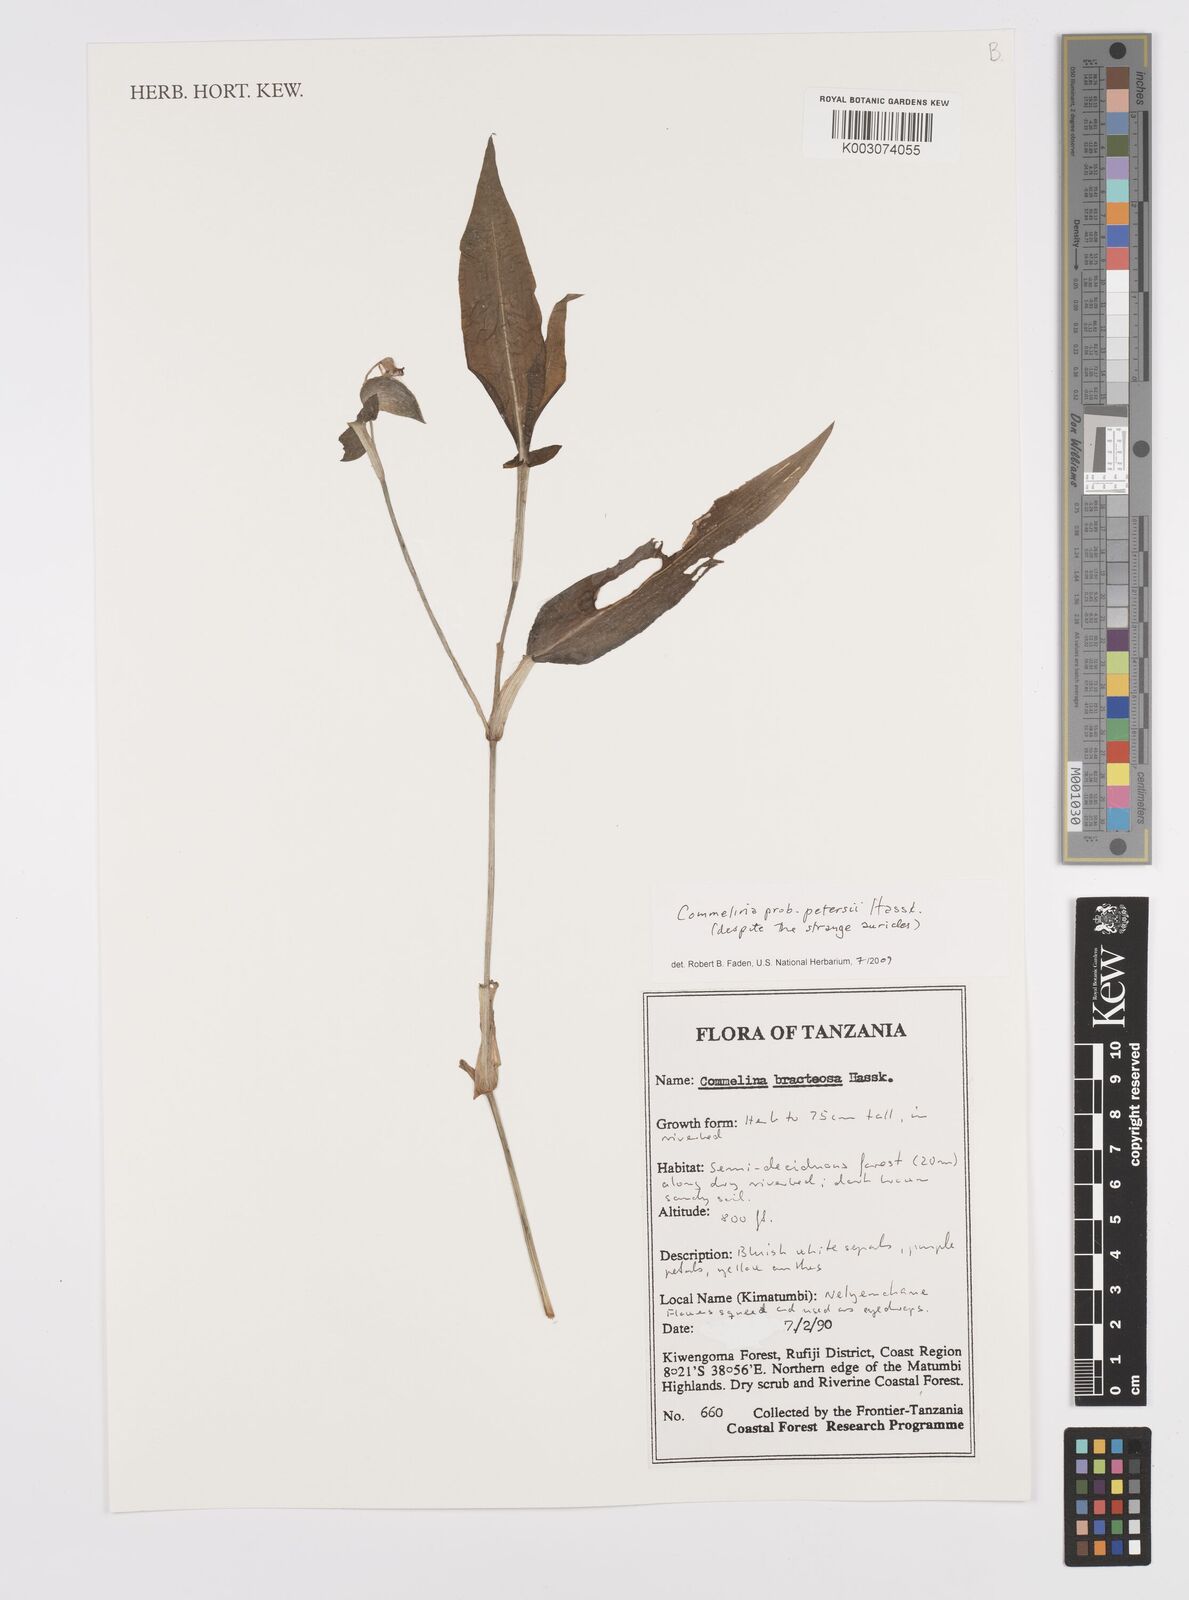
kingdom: Plantae
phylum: Tracheophyta
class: Liliopsida
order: Commelinales
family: Commelinaceae
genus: Commelina
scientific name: Commelina petersii
